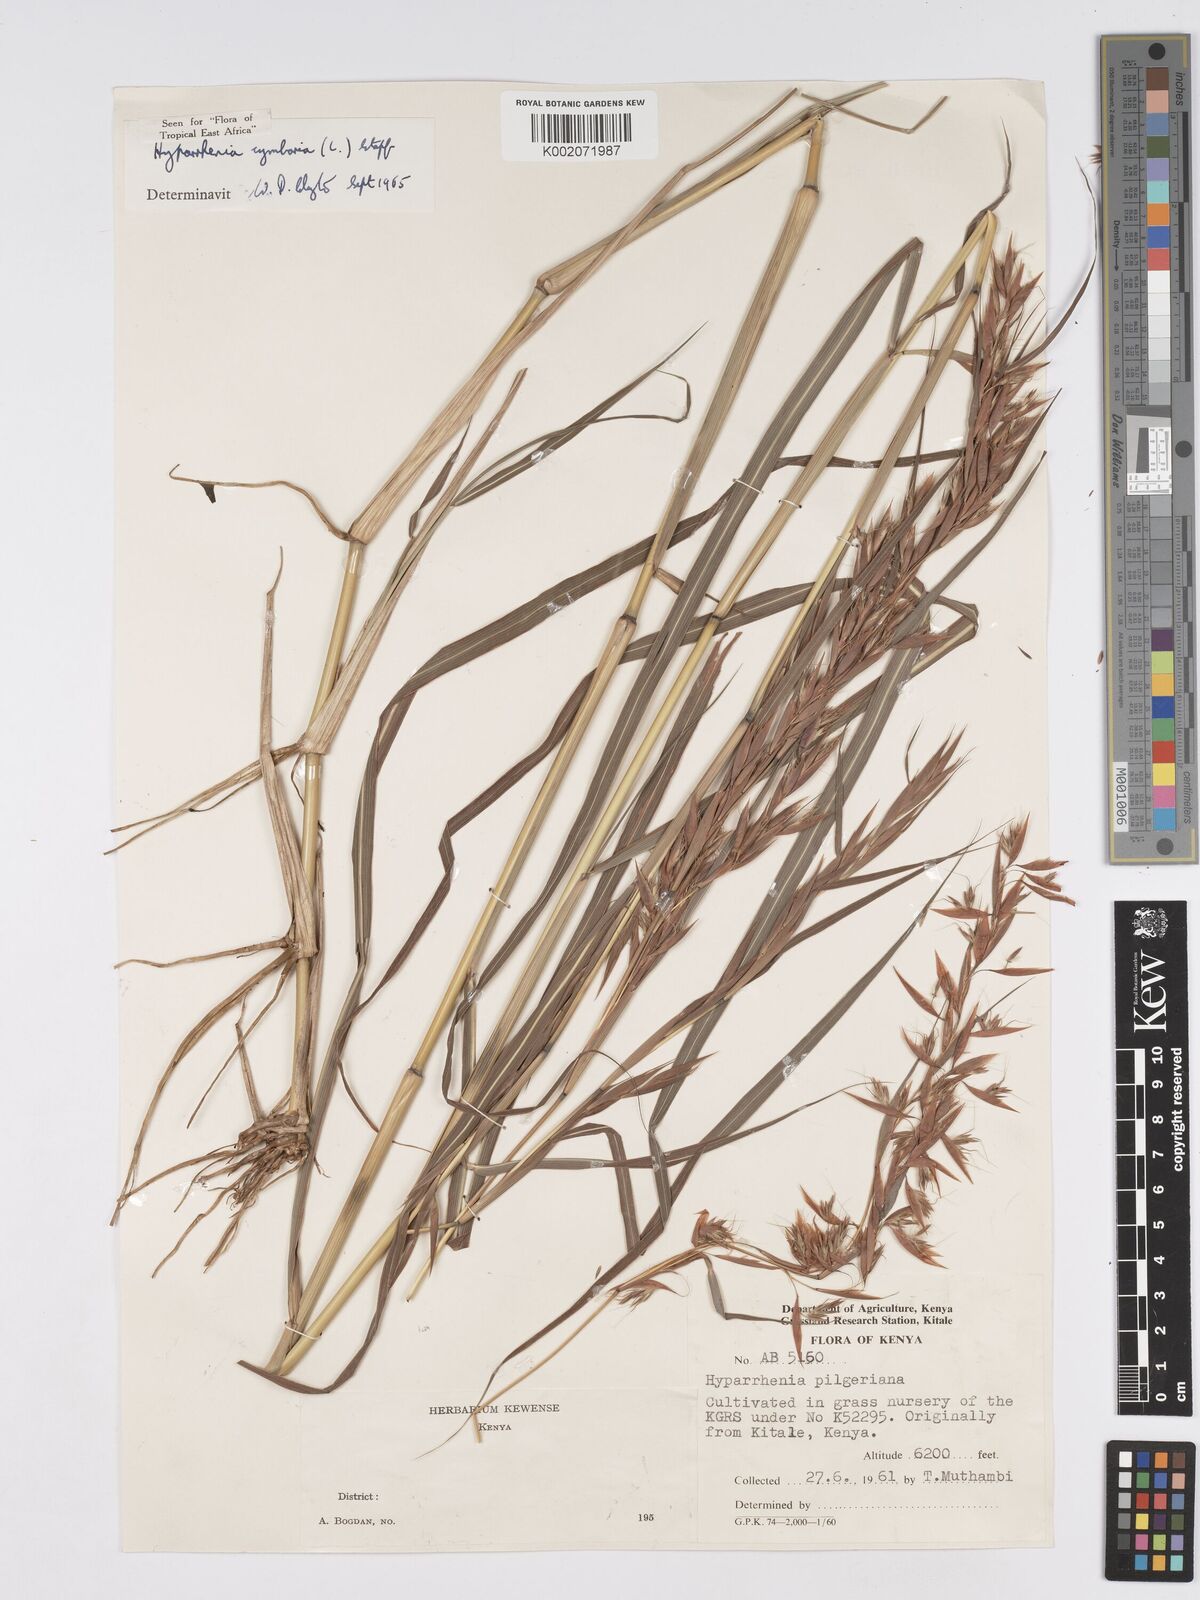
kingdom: Plantae
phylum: Tracheophyta
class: Liliopsida
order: Poales
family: Poaceae
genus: Hyparrhenia
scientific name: Hyparrhenia cymbaria
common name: Boat thatching grass
